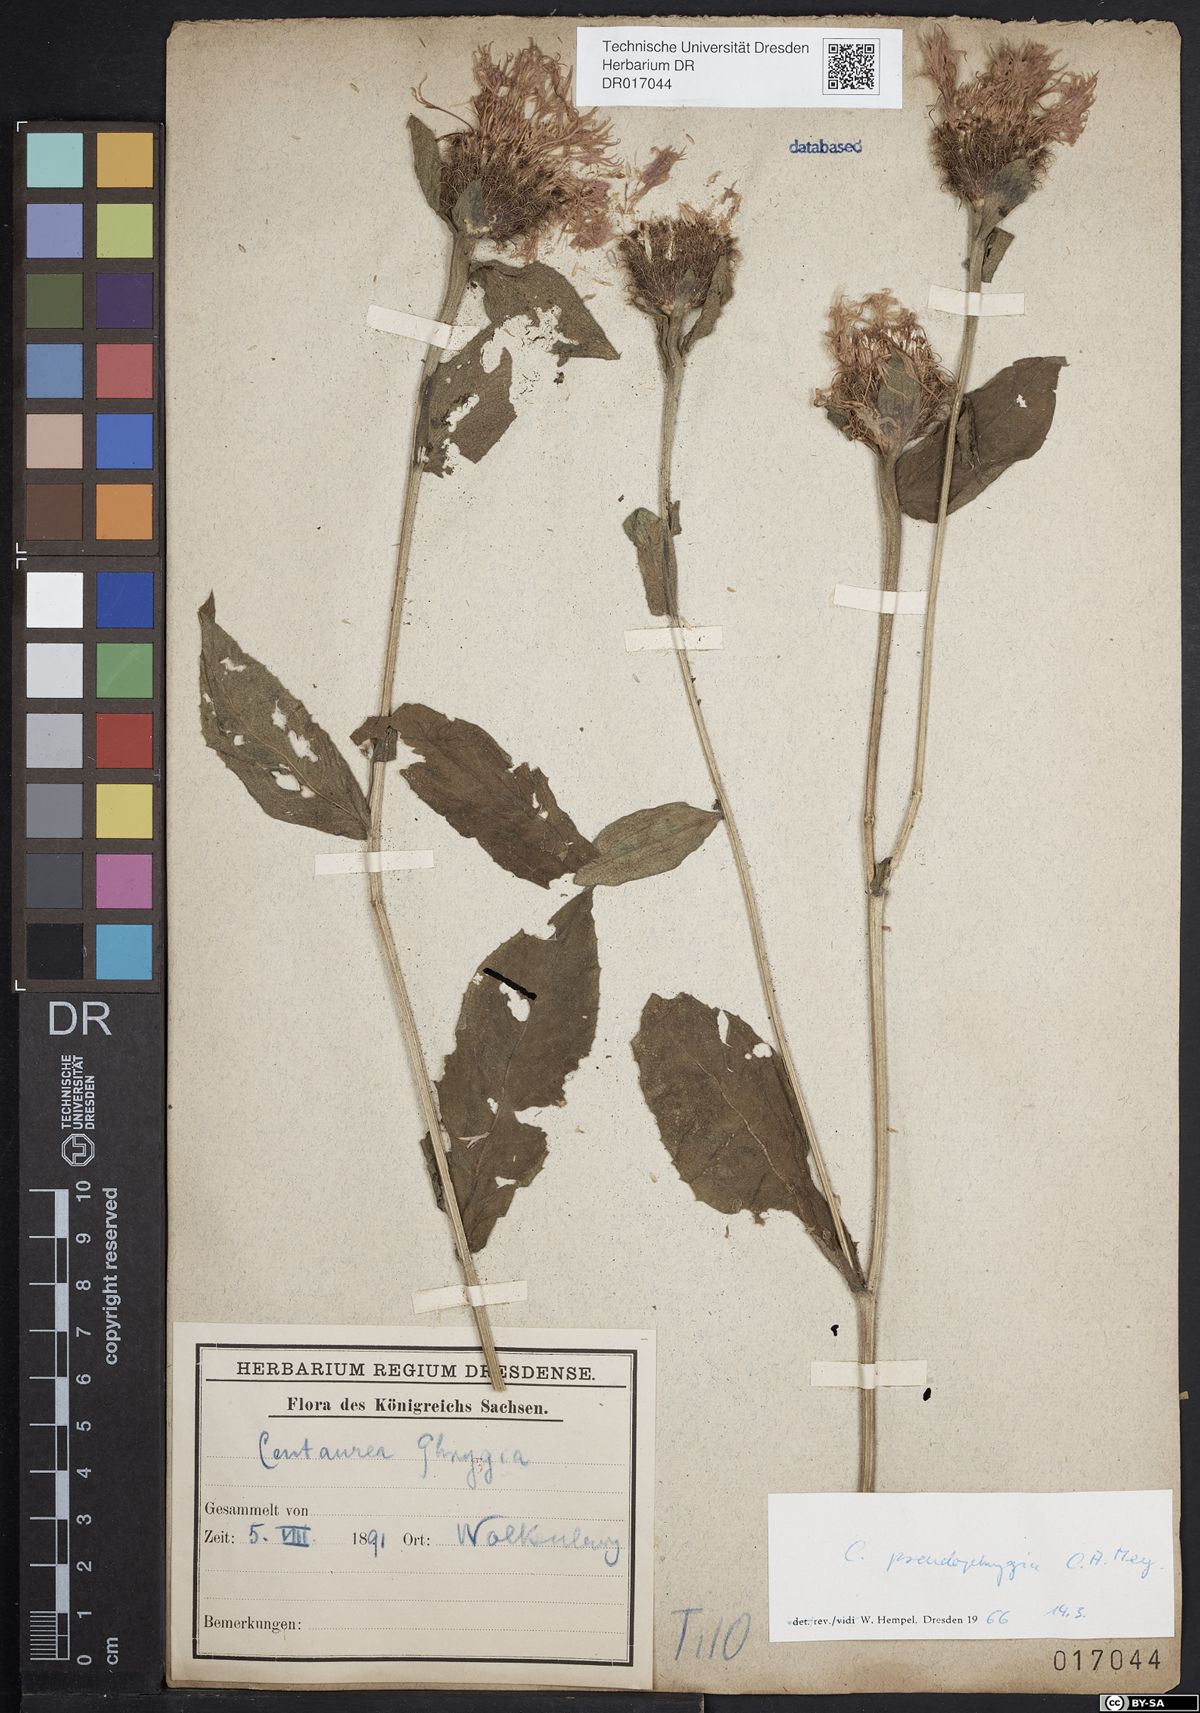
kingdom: Plantae
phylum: Tracheophyta
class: Magnoliopsida
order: Asterales
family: Asteraceae
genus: Centaurea
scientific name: Centaurea pseudophrygia
